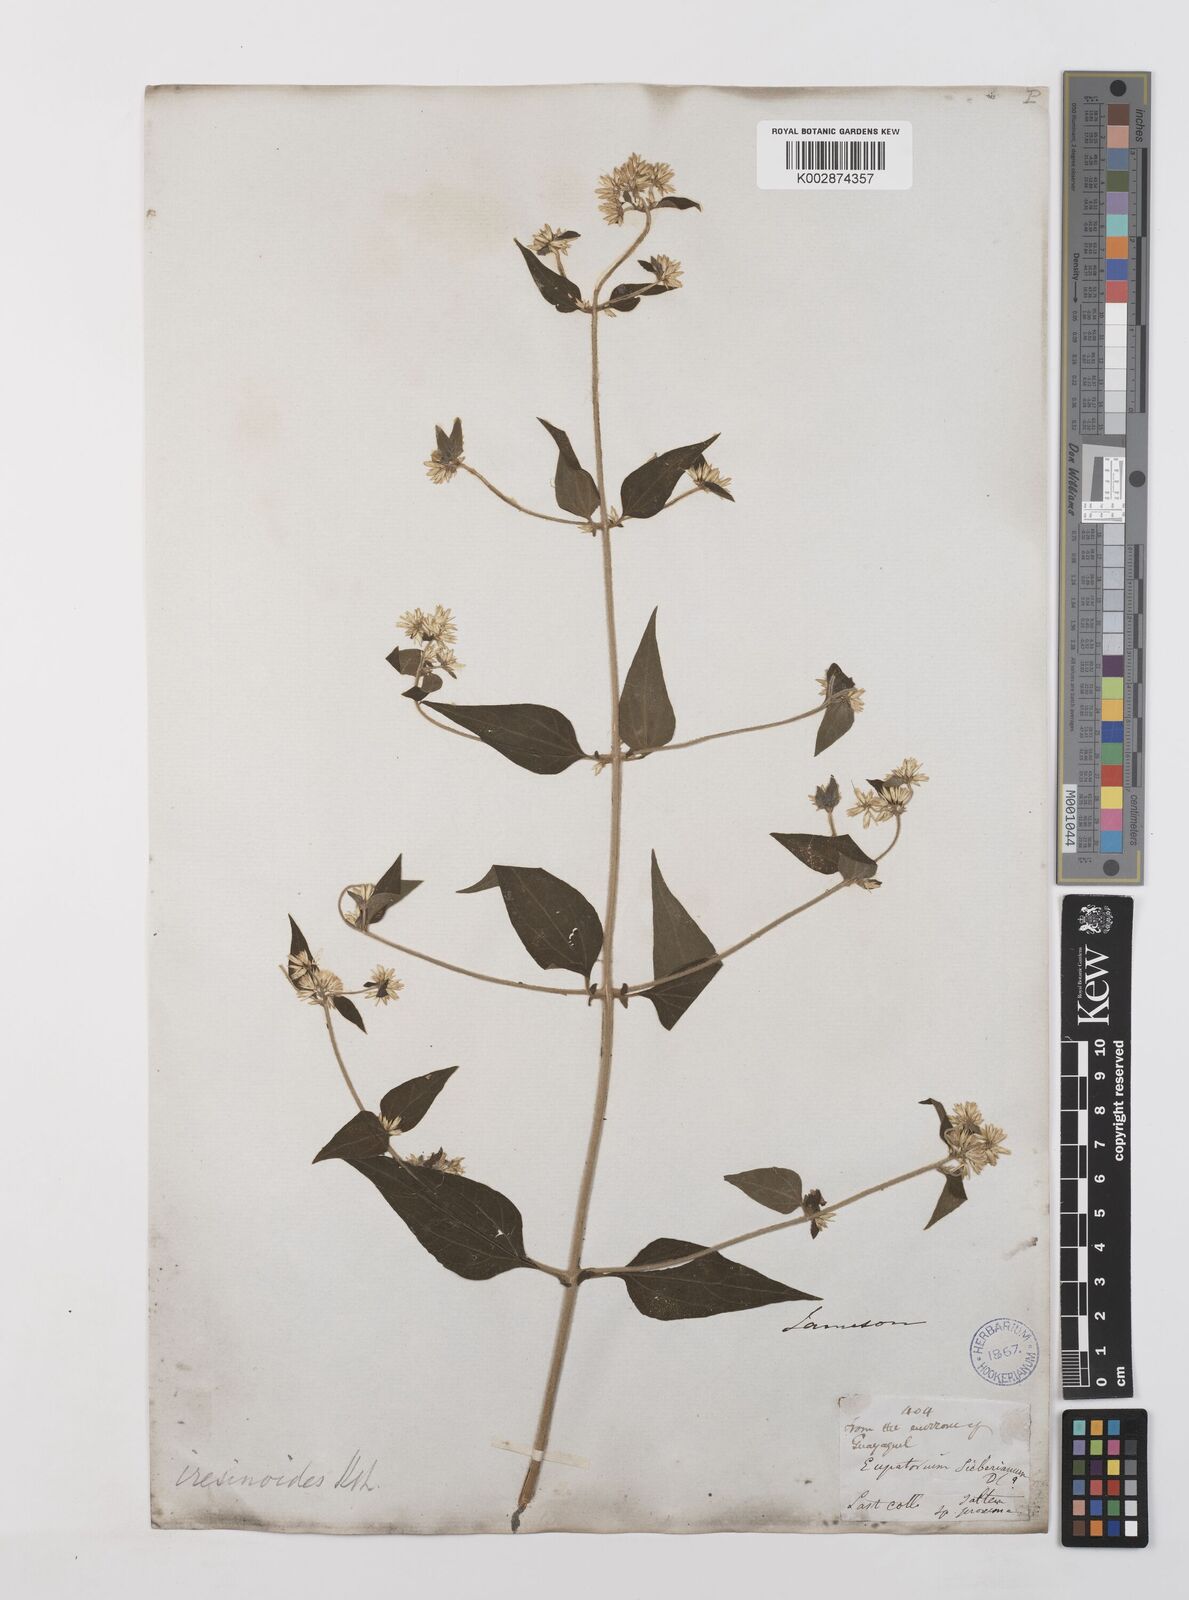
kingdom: Plantae
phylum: Tracheophyta
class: Magnoliopsida
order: Asterales
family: Asteraceae
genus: Condylidium
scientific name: Condylidium iresinoides
